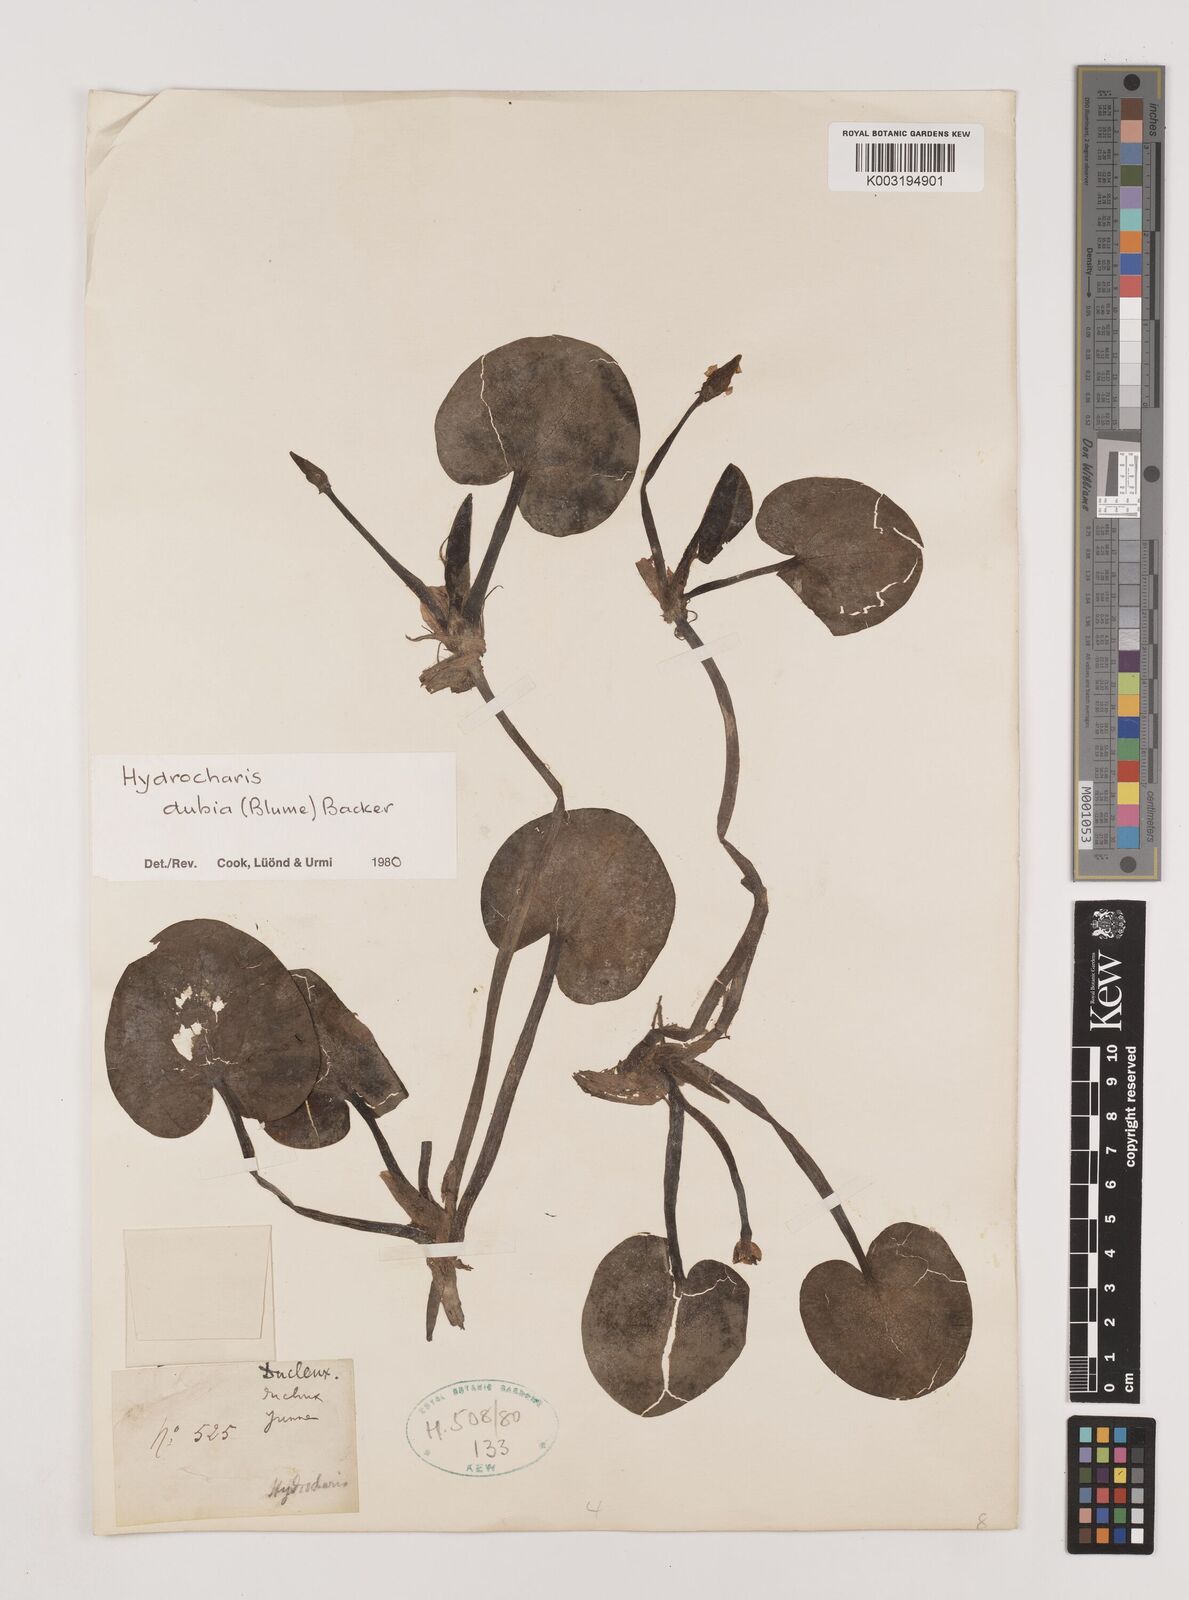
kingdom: Plantae
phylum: Tracheophyta
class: Liliopsida
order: Alismatales
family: Hydrocharitaceae
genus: Hydrocharis
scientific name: Hydrocharis dubia
